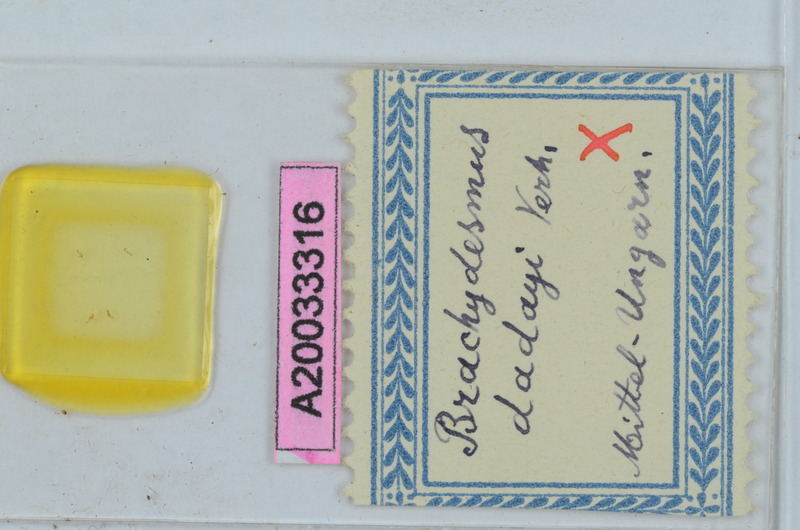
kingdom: Animalia
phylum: Arthropoda
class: Diplopoda
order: Polydesmida
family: Polydesmidae
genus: Brachydesmus
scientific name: Brachydesmus dadayii
